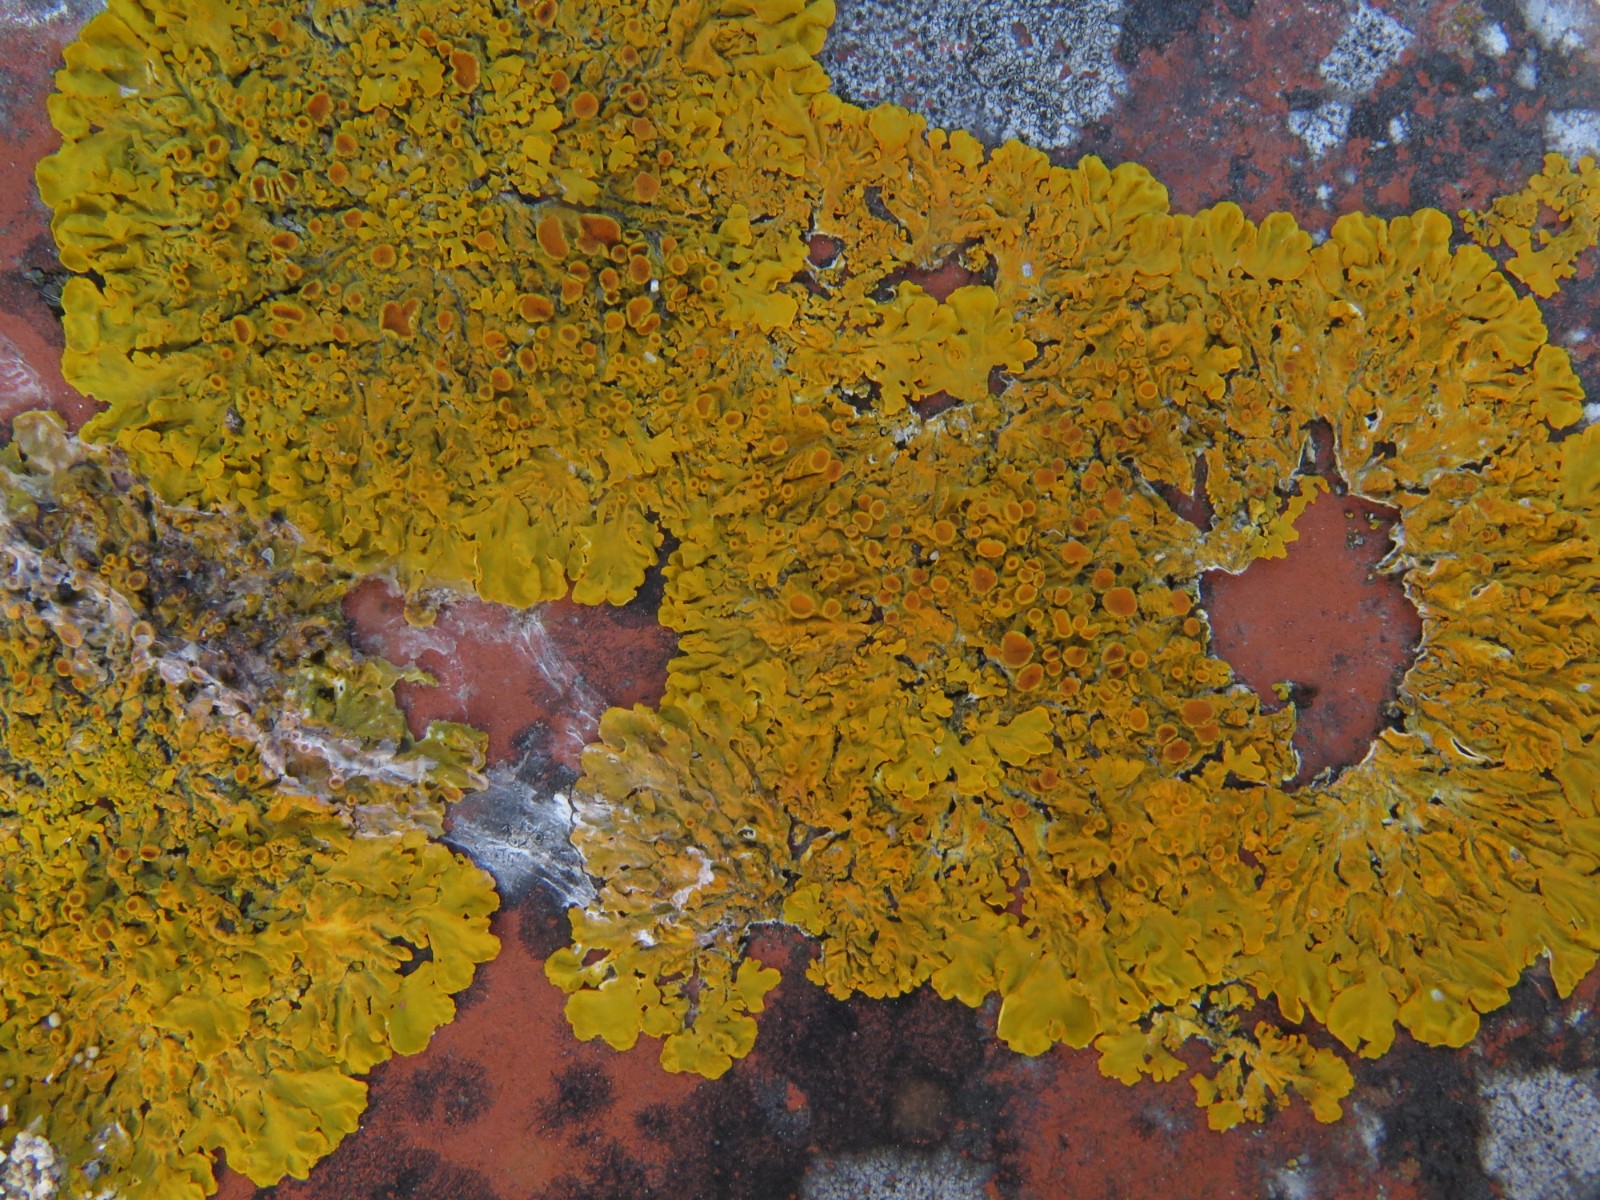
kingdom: Fungi
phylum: Ascomycota
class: Lecanoromycetes
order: Teloschistales
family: Teloschistaceae
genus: Xanthoria
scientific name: Xanthoria parietina
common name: almindelig væggelav
